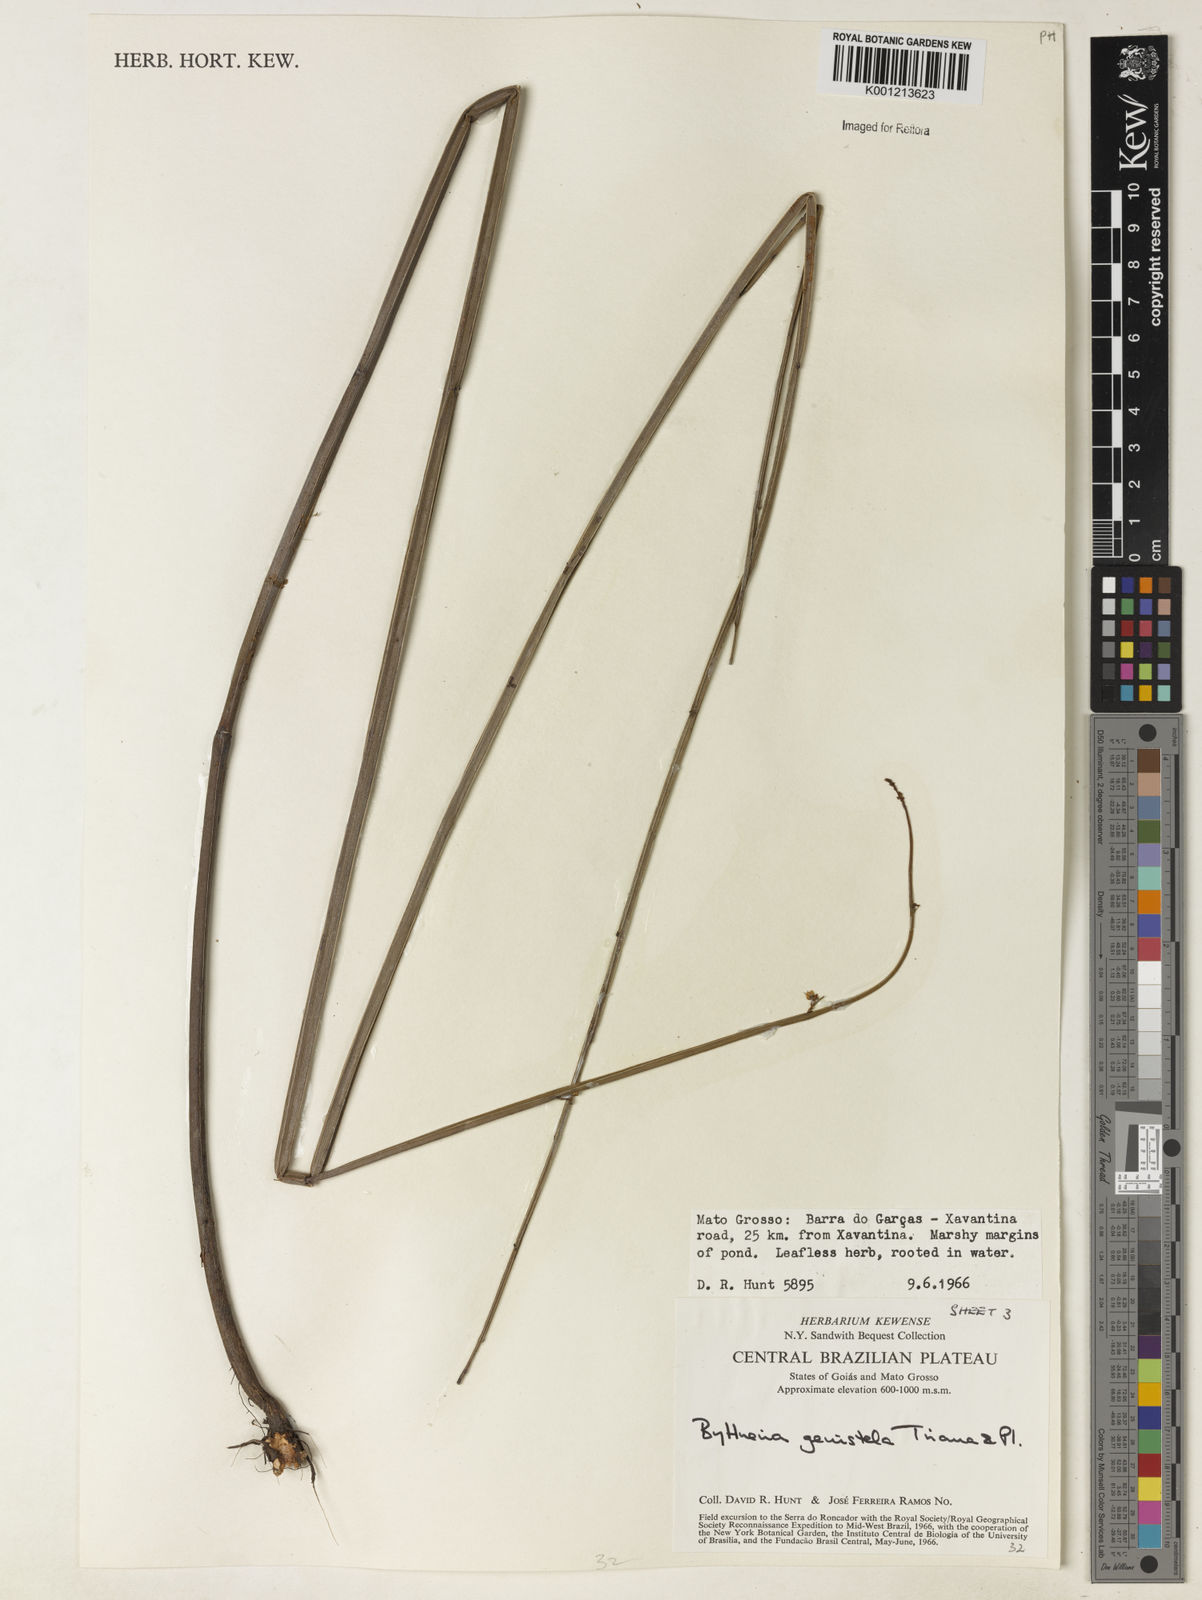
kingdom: Plantae
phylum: Tracheophyta
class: Magnoliopsida
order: Malvales
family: Malvaceae
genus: Byttneria
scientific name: Byttneria genistella
